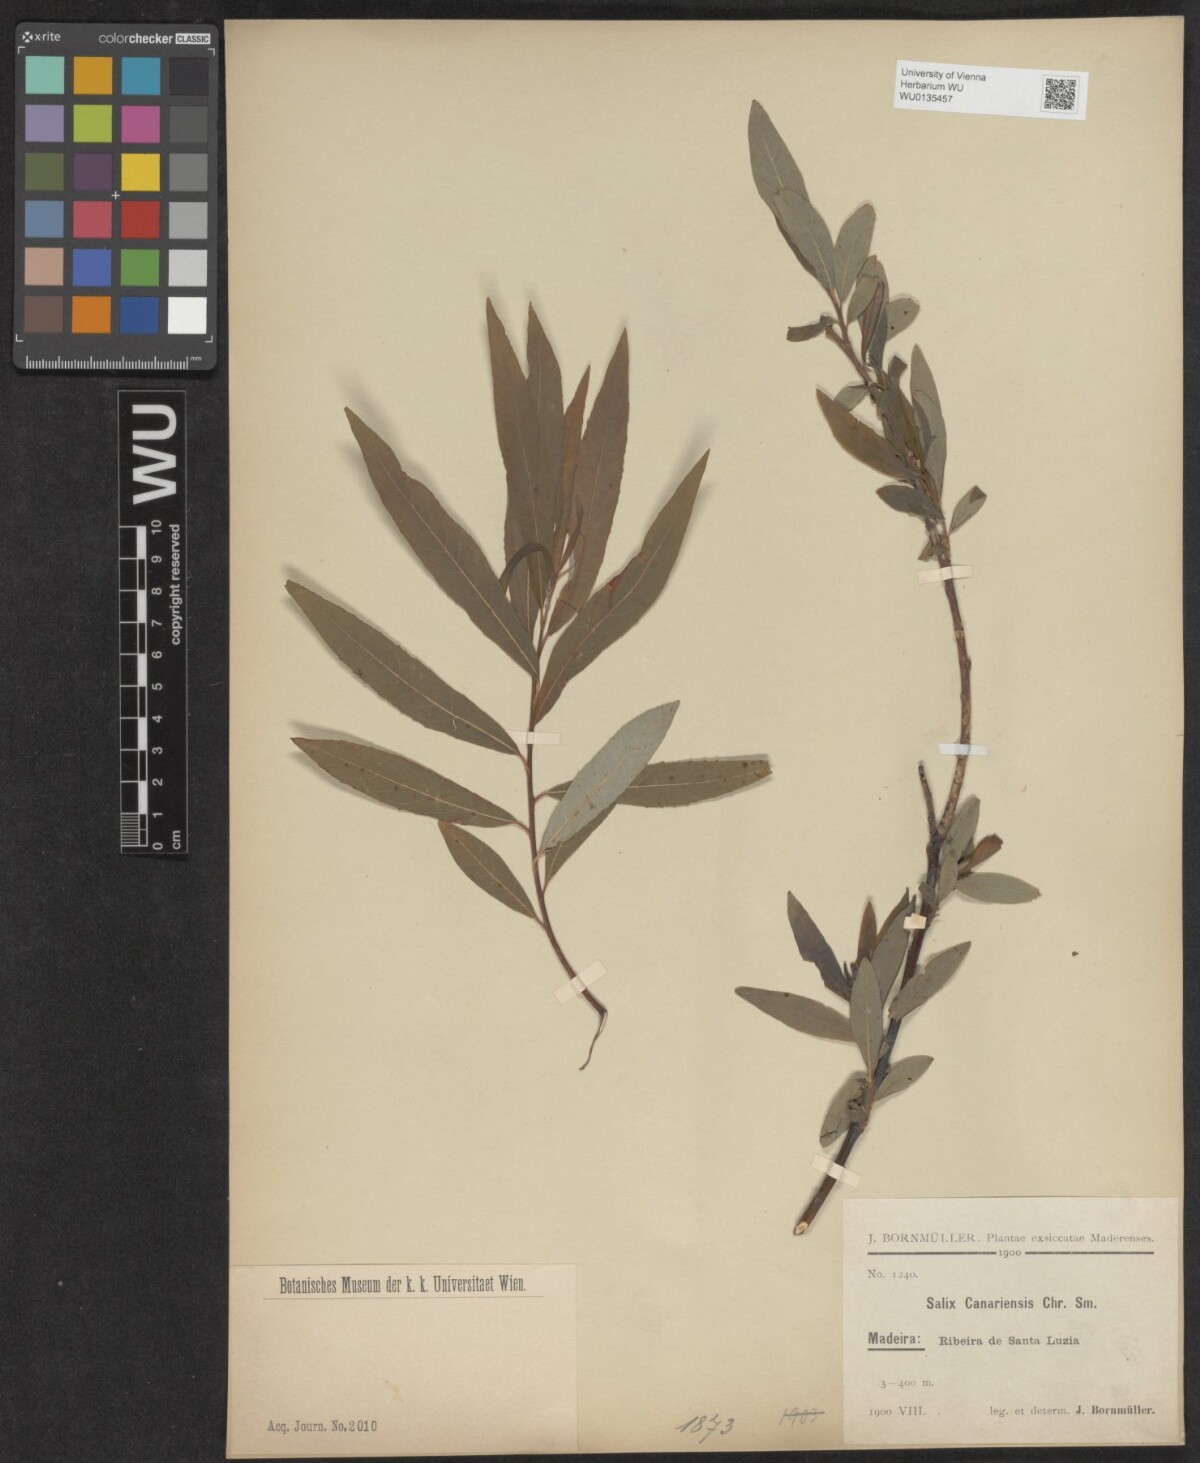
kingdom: Plantae
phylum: Tracheophyta
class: Magnoliopsida
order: Malpighiales
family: Salicaceae
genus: Salix
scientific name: Salix canariensis
